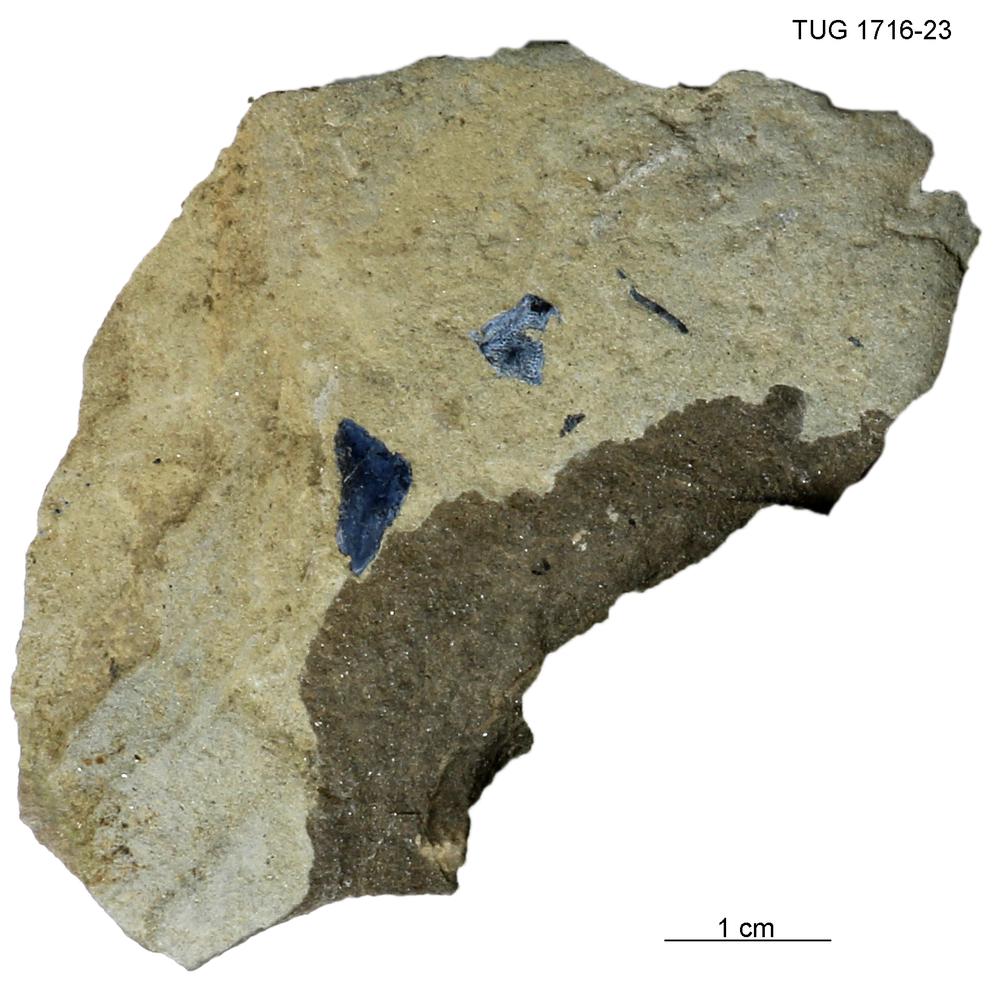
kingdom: Animalia
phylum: Chordata
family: Coccosteidae
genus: Millerosteus
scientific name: Millerosteus minor
